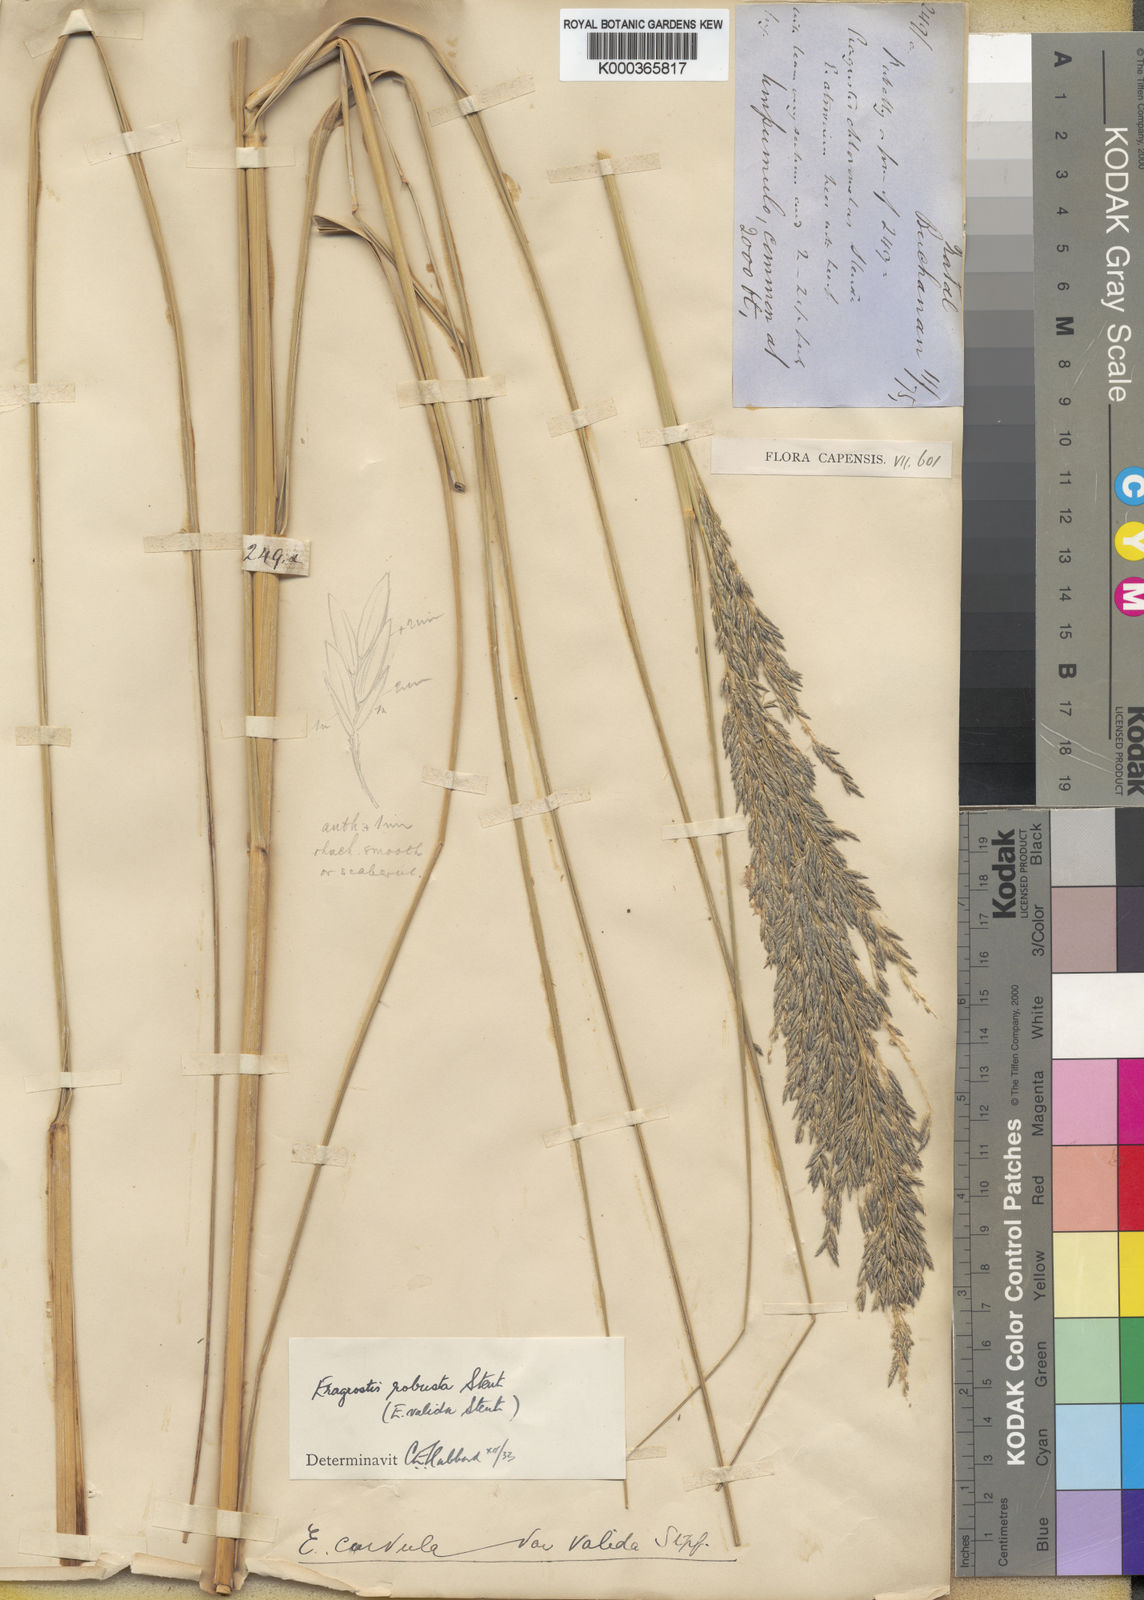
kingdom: Plantae
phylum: Tracheophyta
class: Liliopsida
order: Poales
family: Poaceae
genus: Eragrostis
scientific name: Eragrostis curvula
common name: African love-grass
